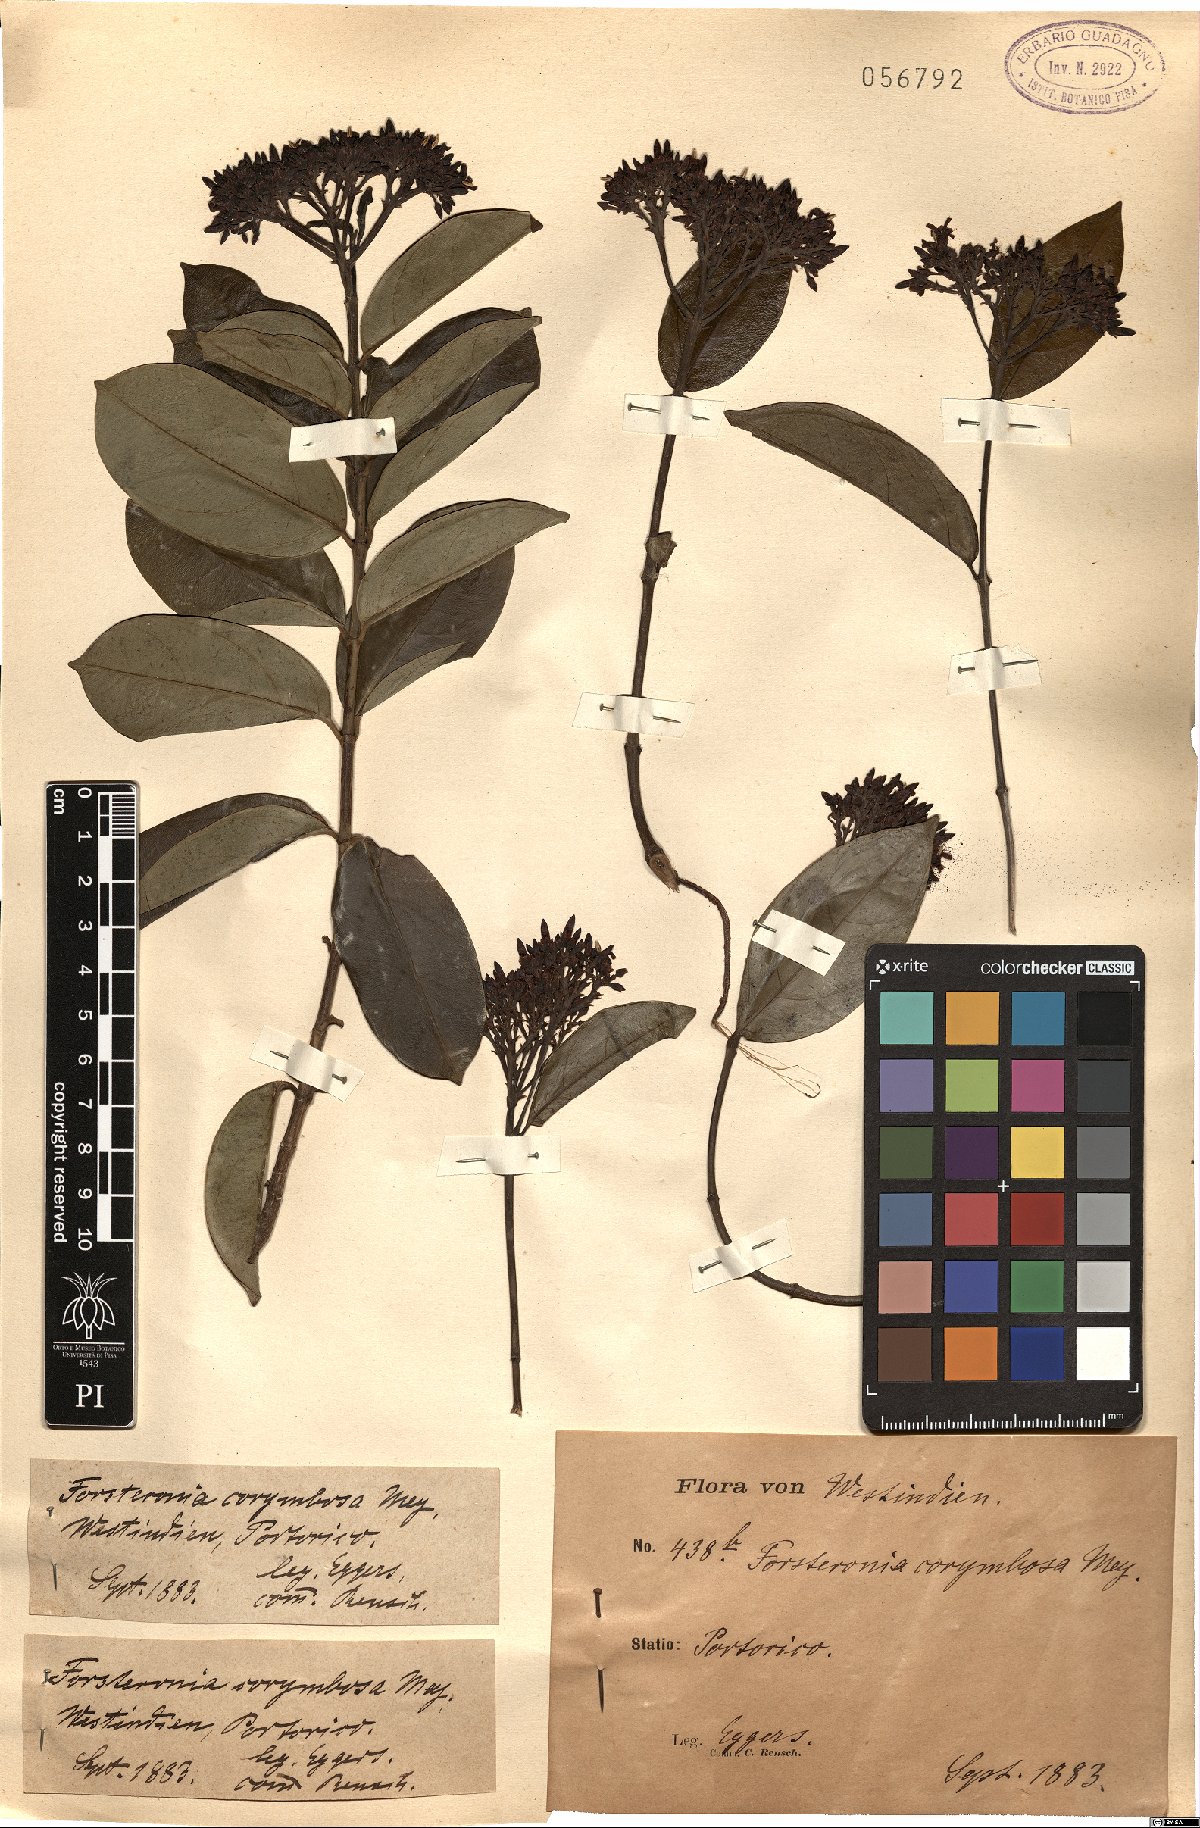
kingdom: Plantae
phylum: Tracheophyta
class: Magnoliopsida
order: Gentianales
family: Apocynaceae
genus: Pinochia
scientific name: Pinochia corymbosa
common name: Sanjuanera
